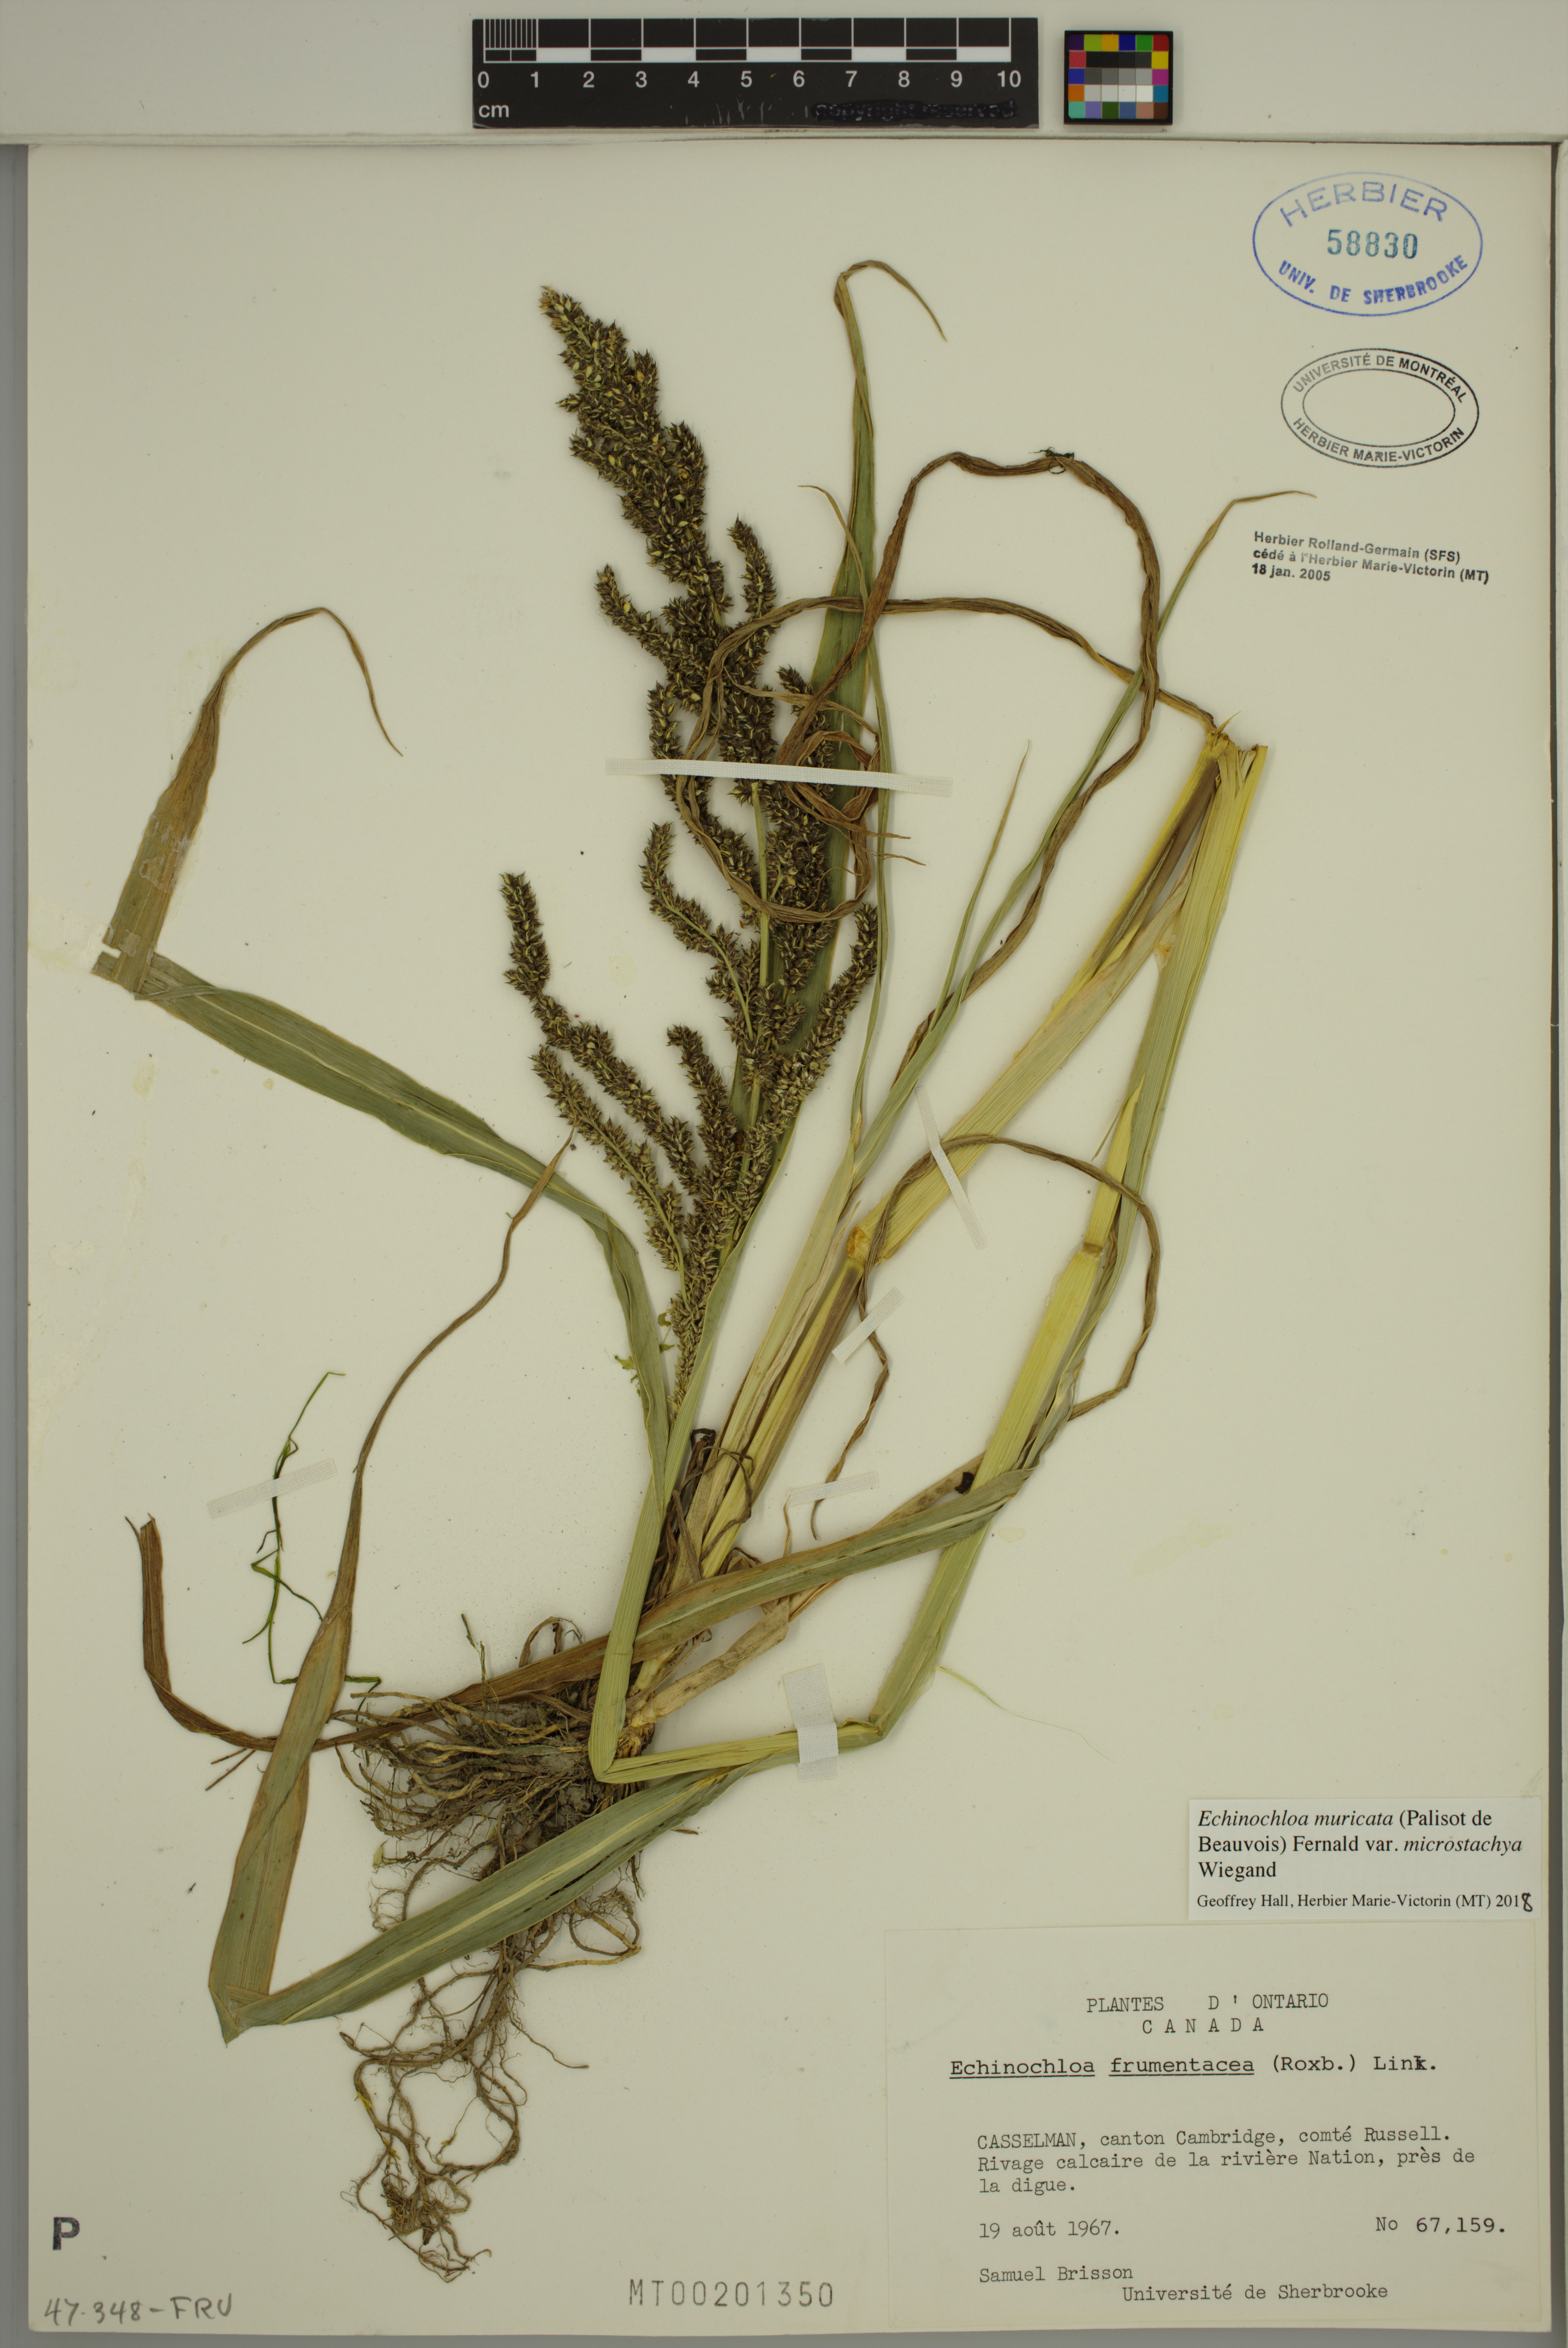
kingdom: Plantae
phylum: Tracheophyta
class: Liliopsida
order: Poales
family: Poaceae
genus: Echinochloa
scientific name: Echinochloa muricata
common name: American barnyard grass
